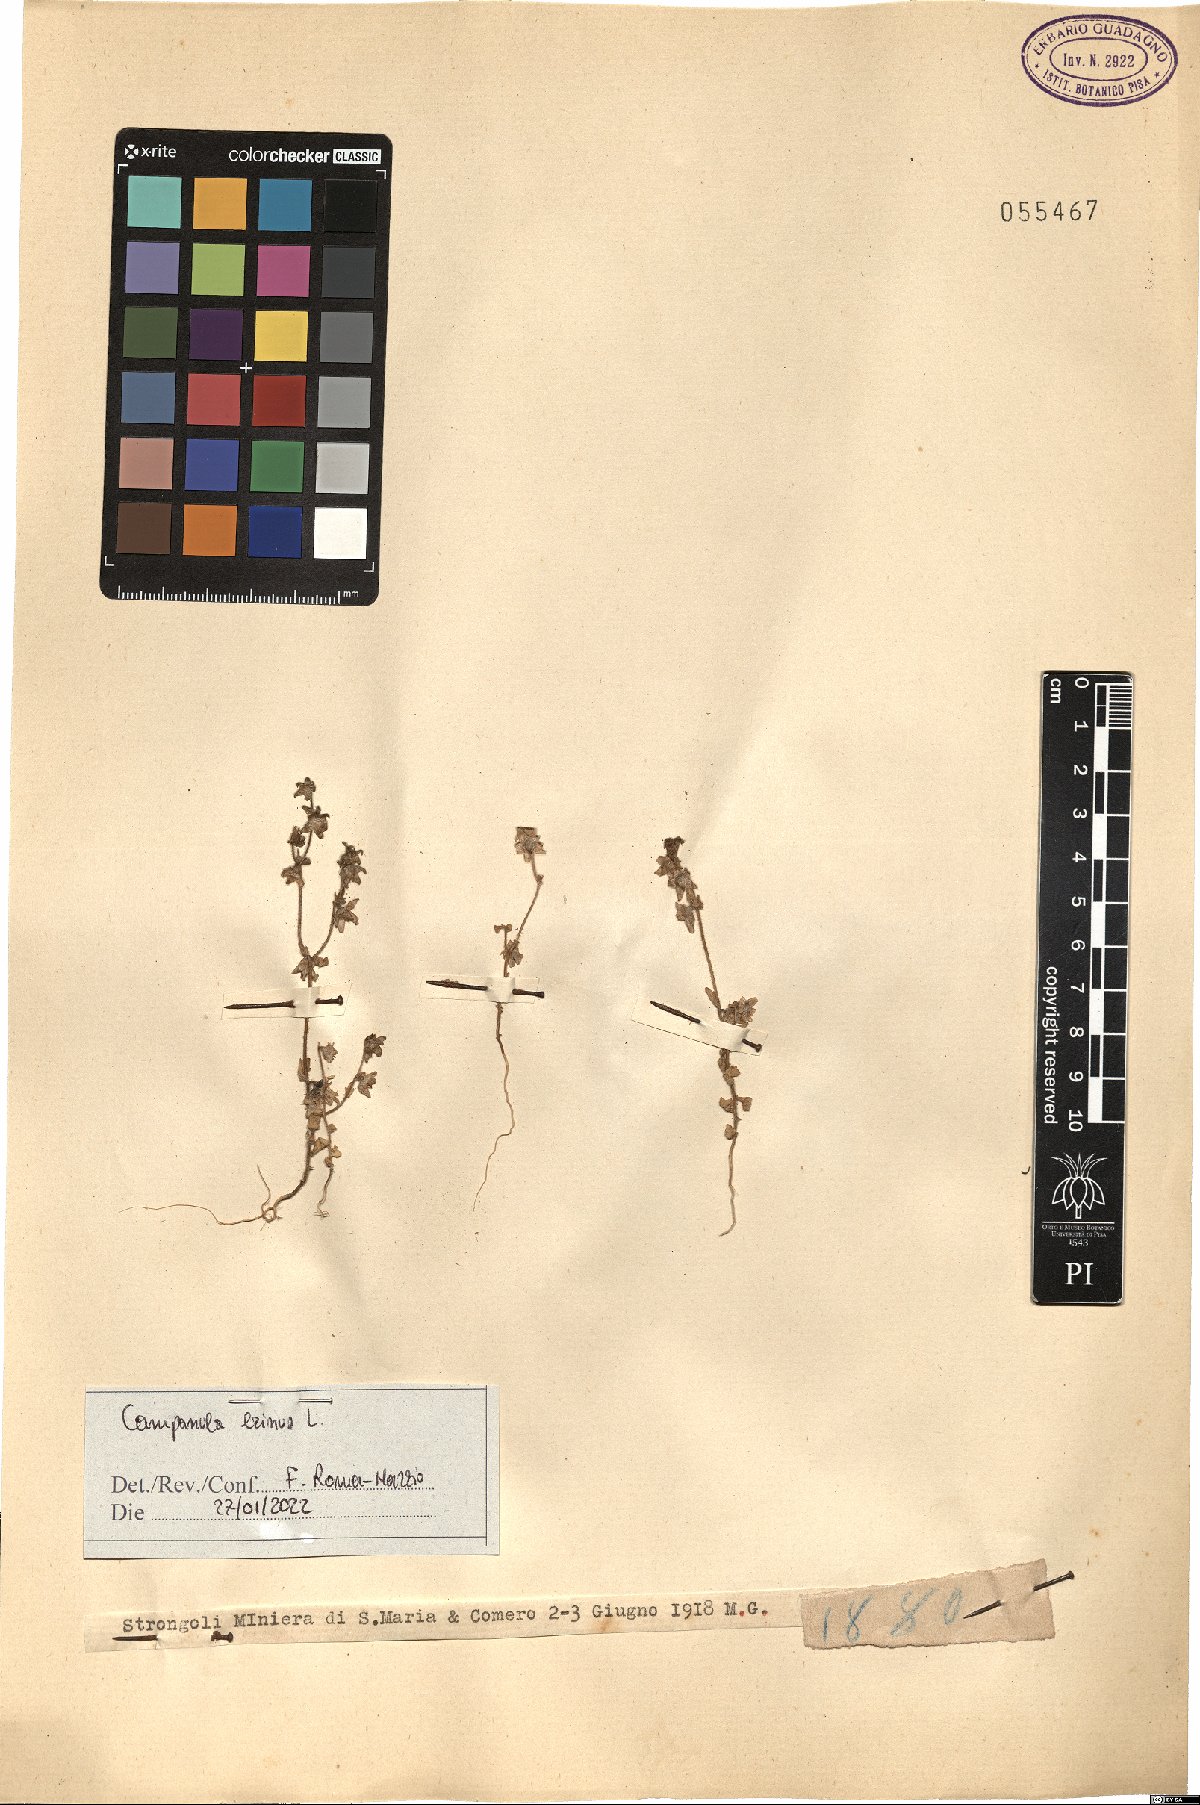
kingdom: Plantae
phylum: Tracheophyta
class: Magnoliopsida
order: Asterales
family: Campanulaceae
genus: Campanula
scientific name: Campanula erinus
